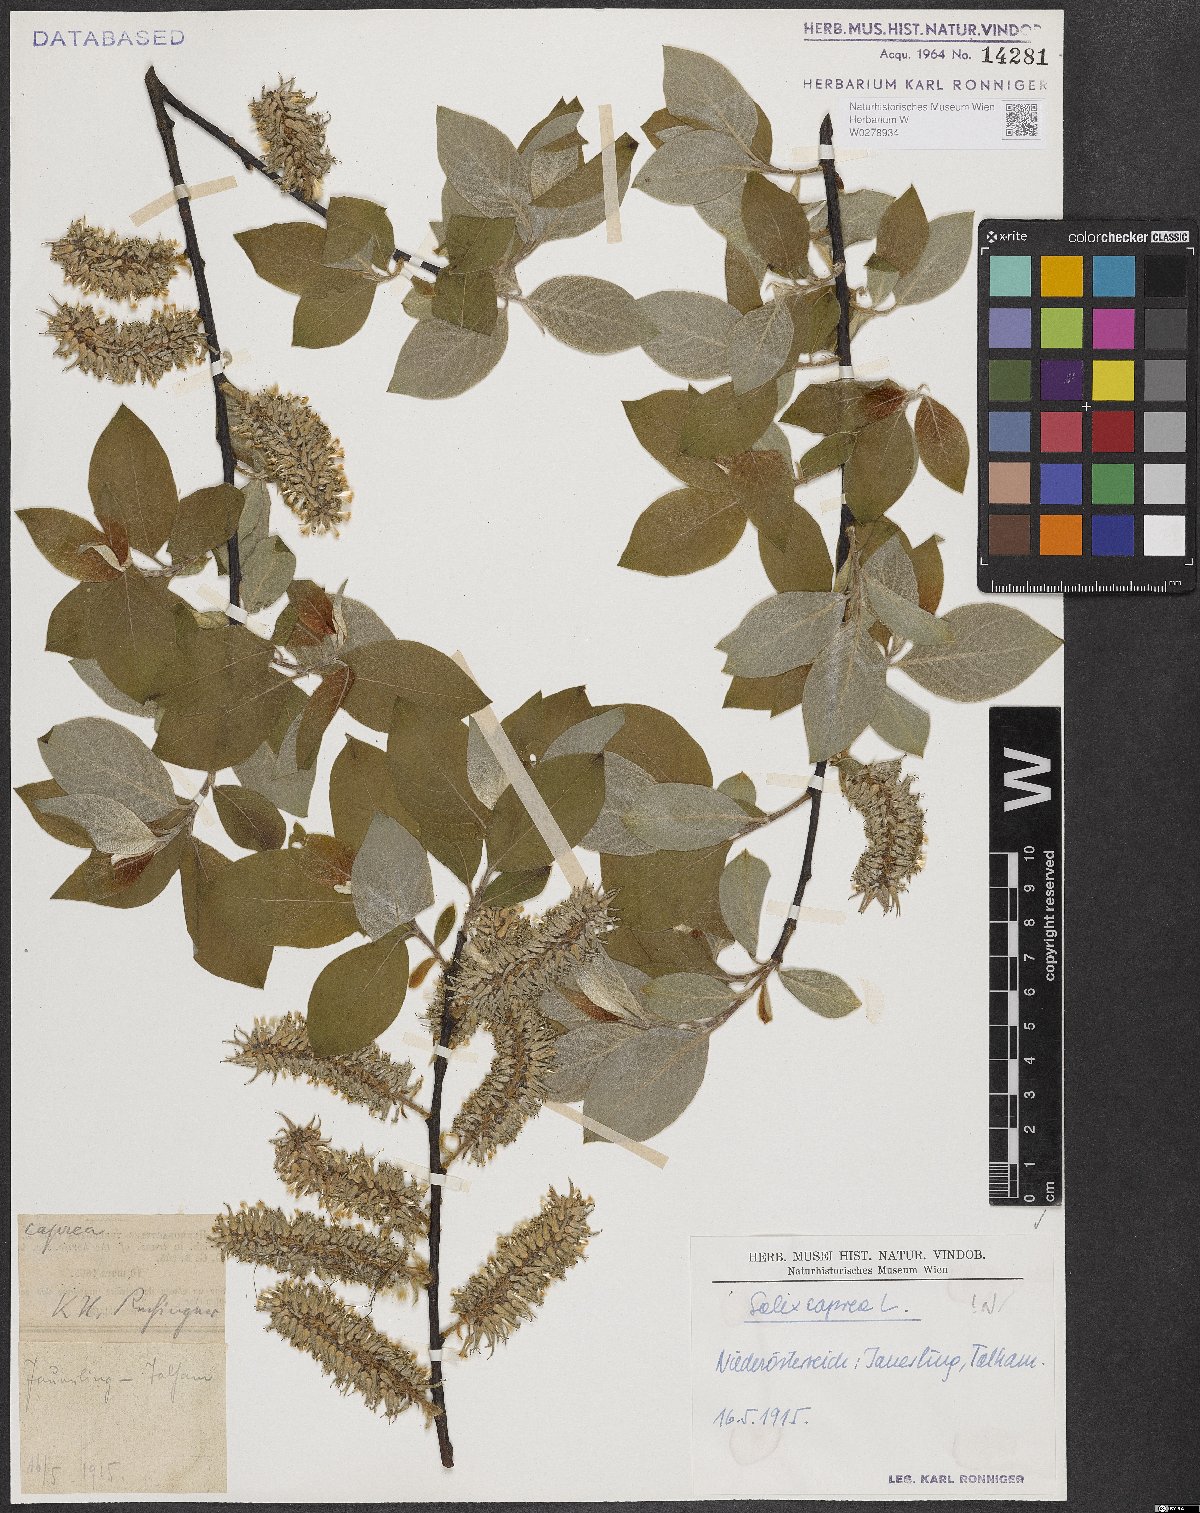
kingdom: Plantae
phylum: Tracheophyta
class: Magnoliopsida
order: Malpighiales
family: Salicaceae
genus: Salix
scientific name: Salix caprea
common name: Goat willow
